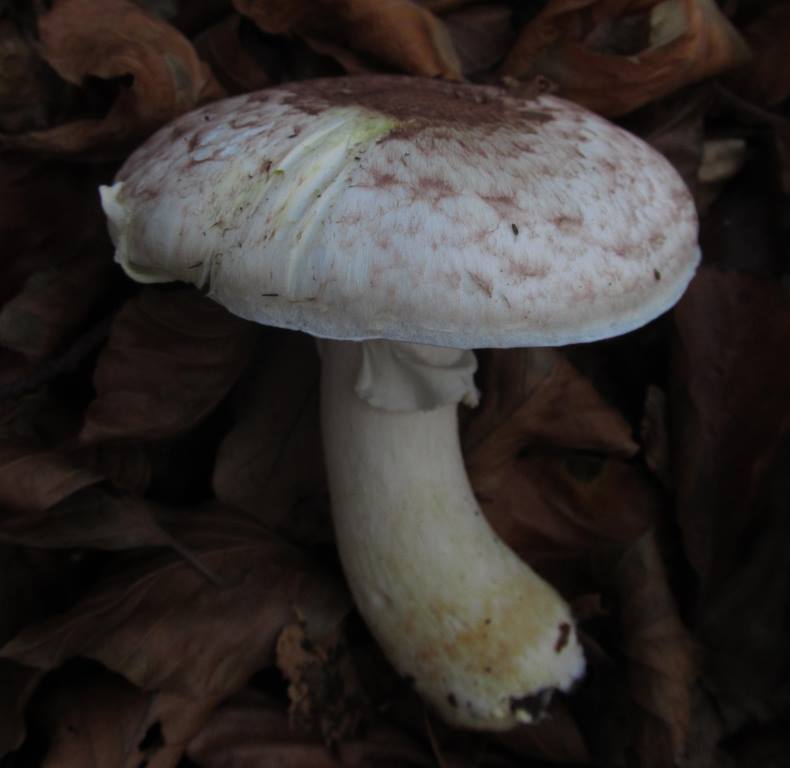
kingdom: Fungi
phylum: Basidiomycota
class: Agaricomycetes
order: Agaricales
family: Agaricaceae
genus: Agaricus
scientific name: Agaricus brunneolus
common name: purpur-champignon
